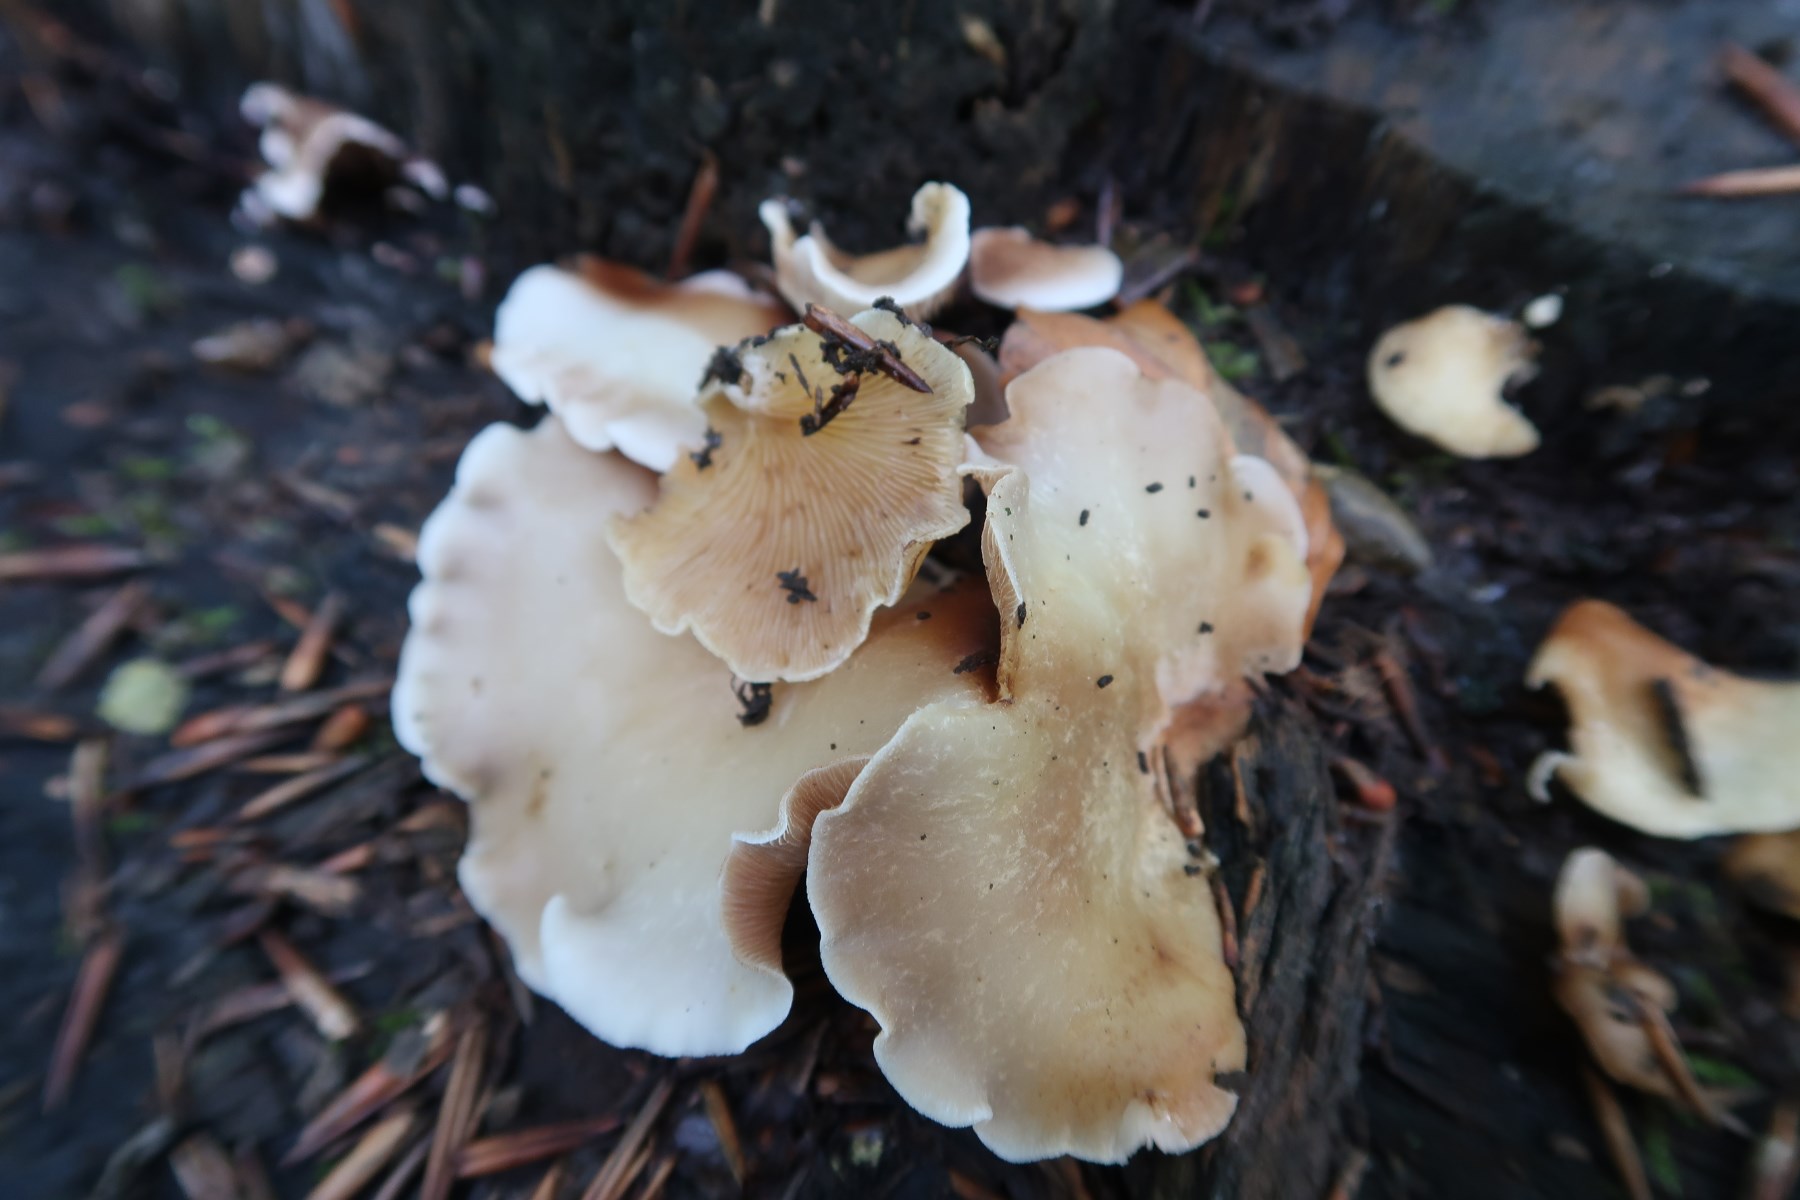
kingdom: Fungi
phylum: Basidiomycota
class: Agaricomycetes
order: Agaricales
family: Crepidotaceae
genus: Crepidotus
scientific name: Crepidotus mollis
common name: blød muslingesvamp
